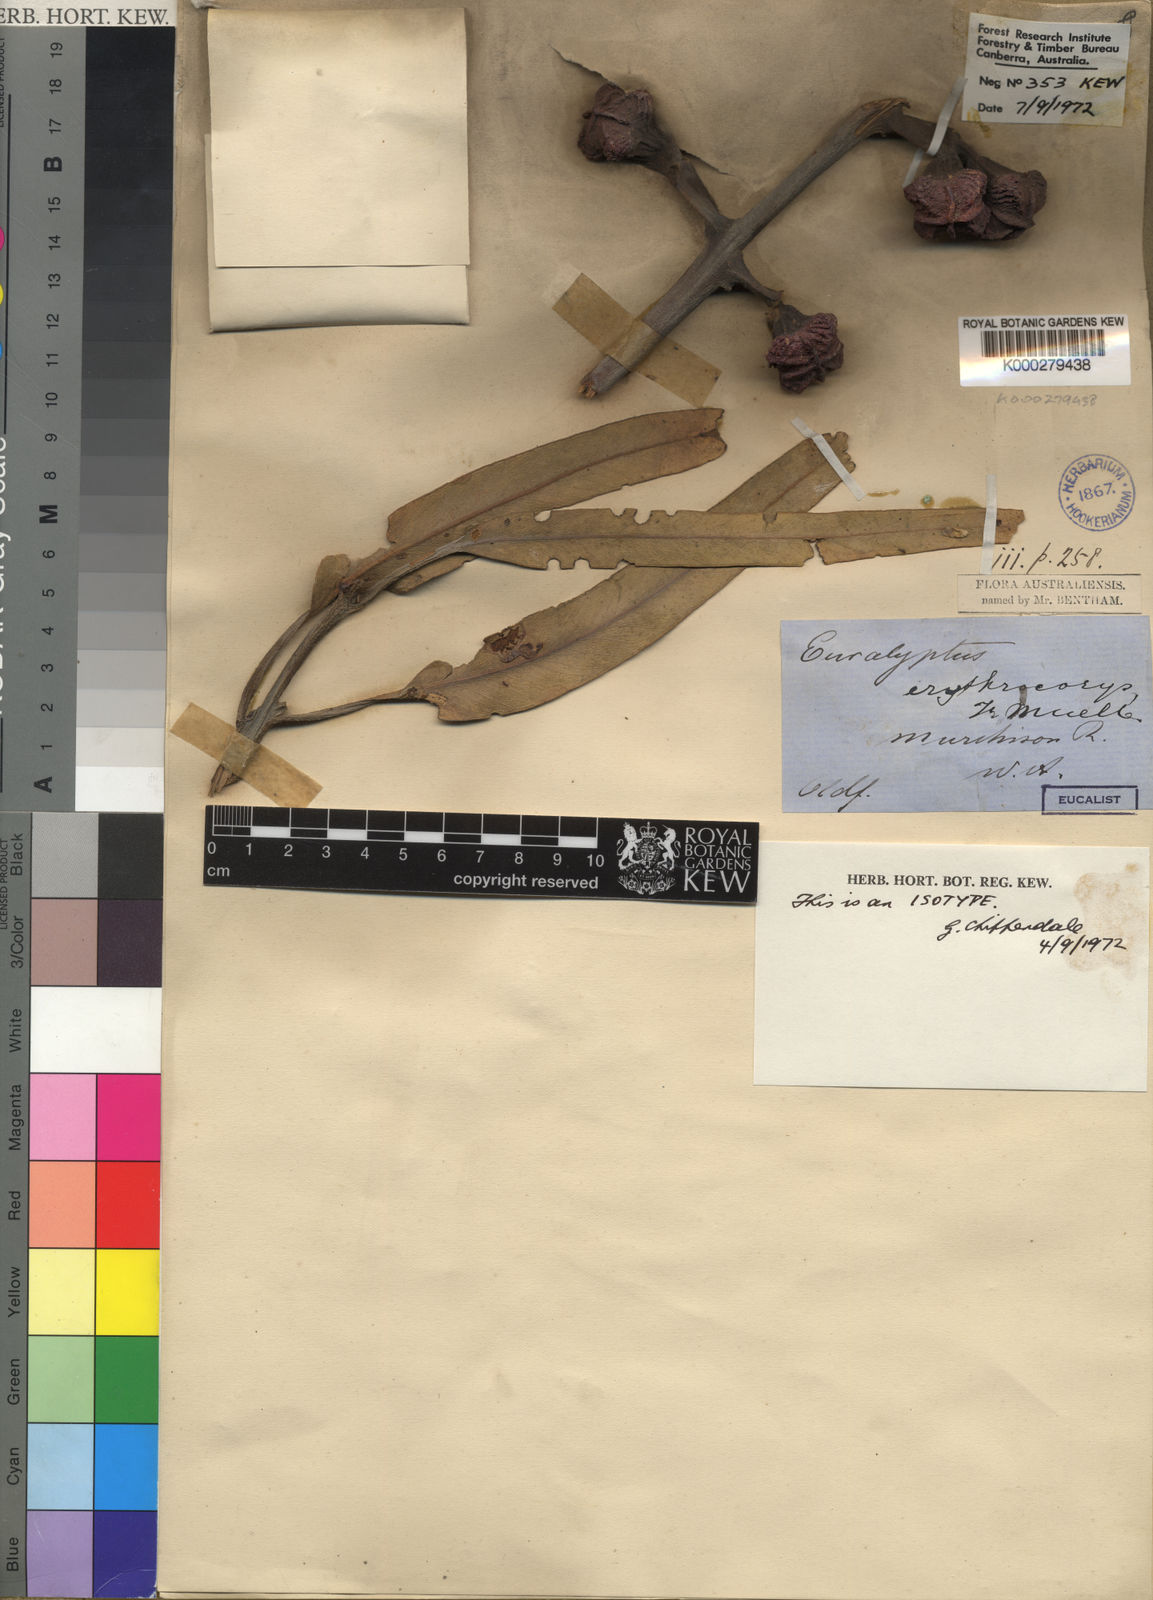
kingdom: Plantae
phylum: Tracheophyta
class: Magnoliopsida
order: Myrtales
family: Myrtaceae
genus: Eucalyptus
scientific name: Eucalyptus erythrocorys
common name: Bookara gum
